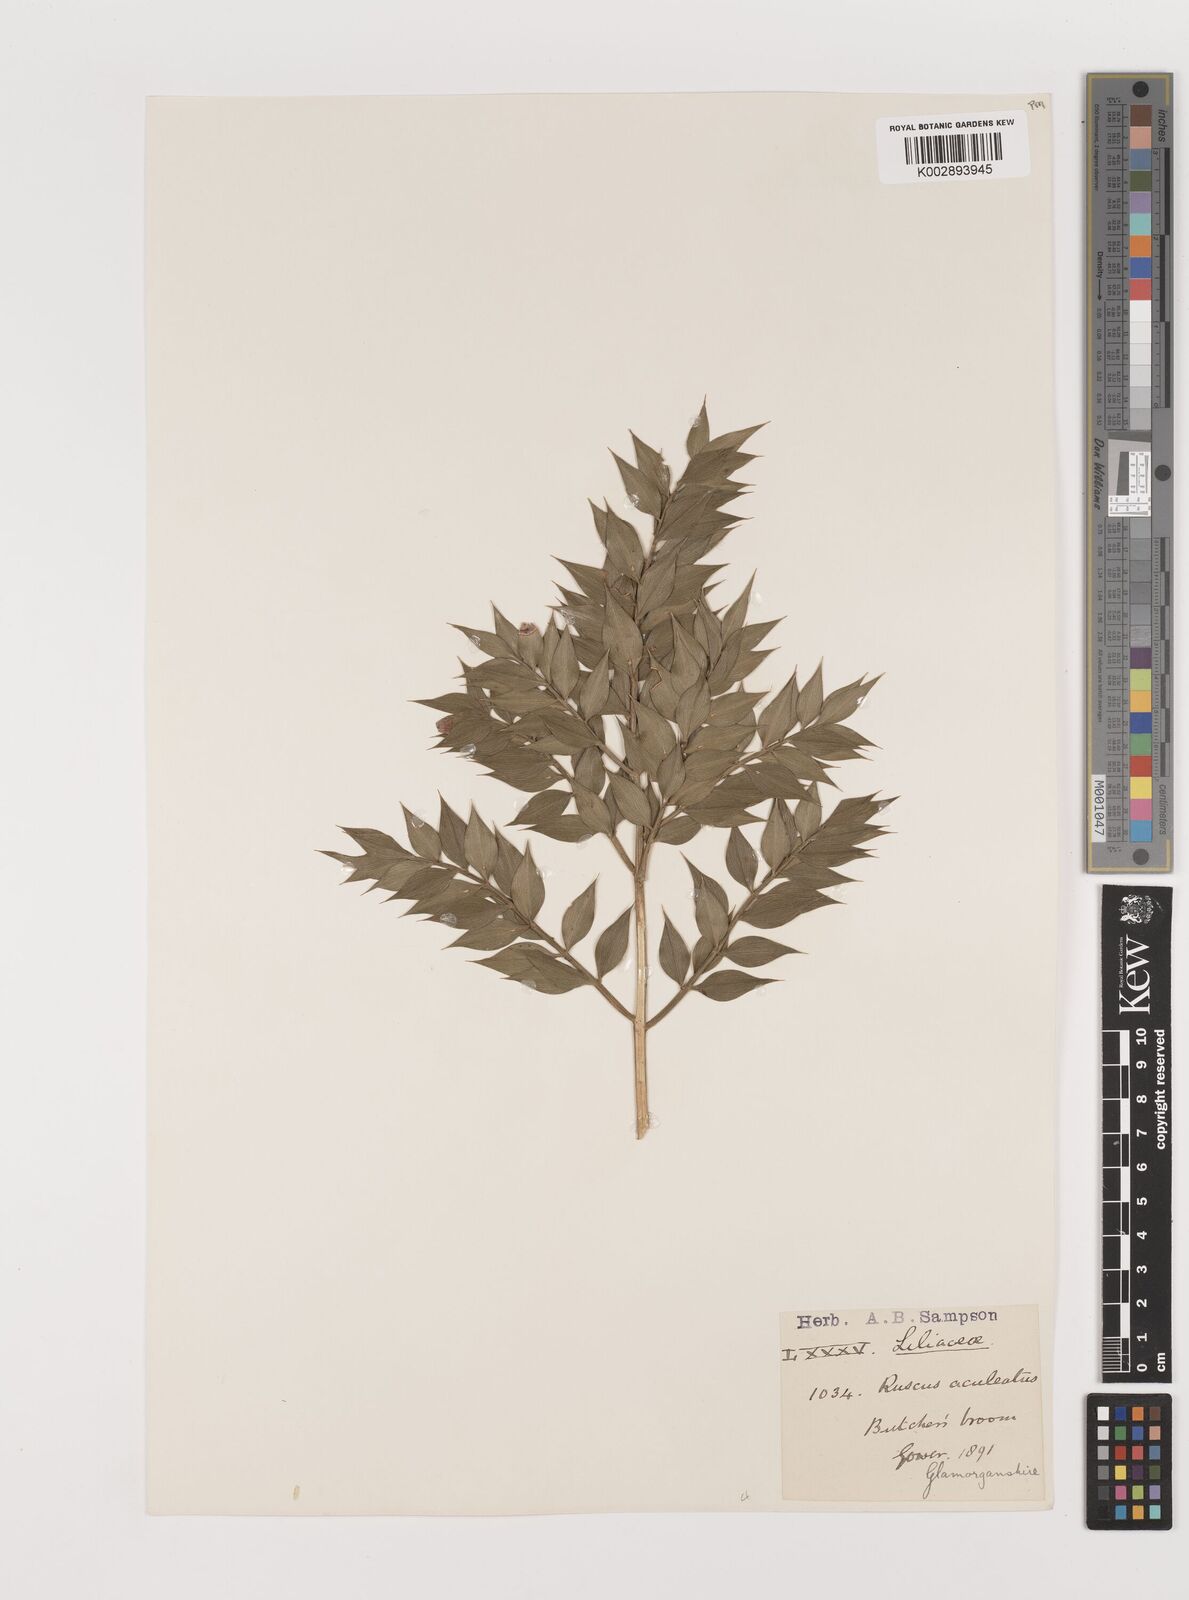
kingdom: Plantae
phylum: Tracheophyta
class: Liliopsida
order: Asparagales
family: Asparagaceae
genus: Ruscus
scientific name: Ruscus aculeatus
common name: Butcher's-broom
